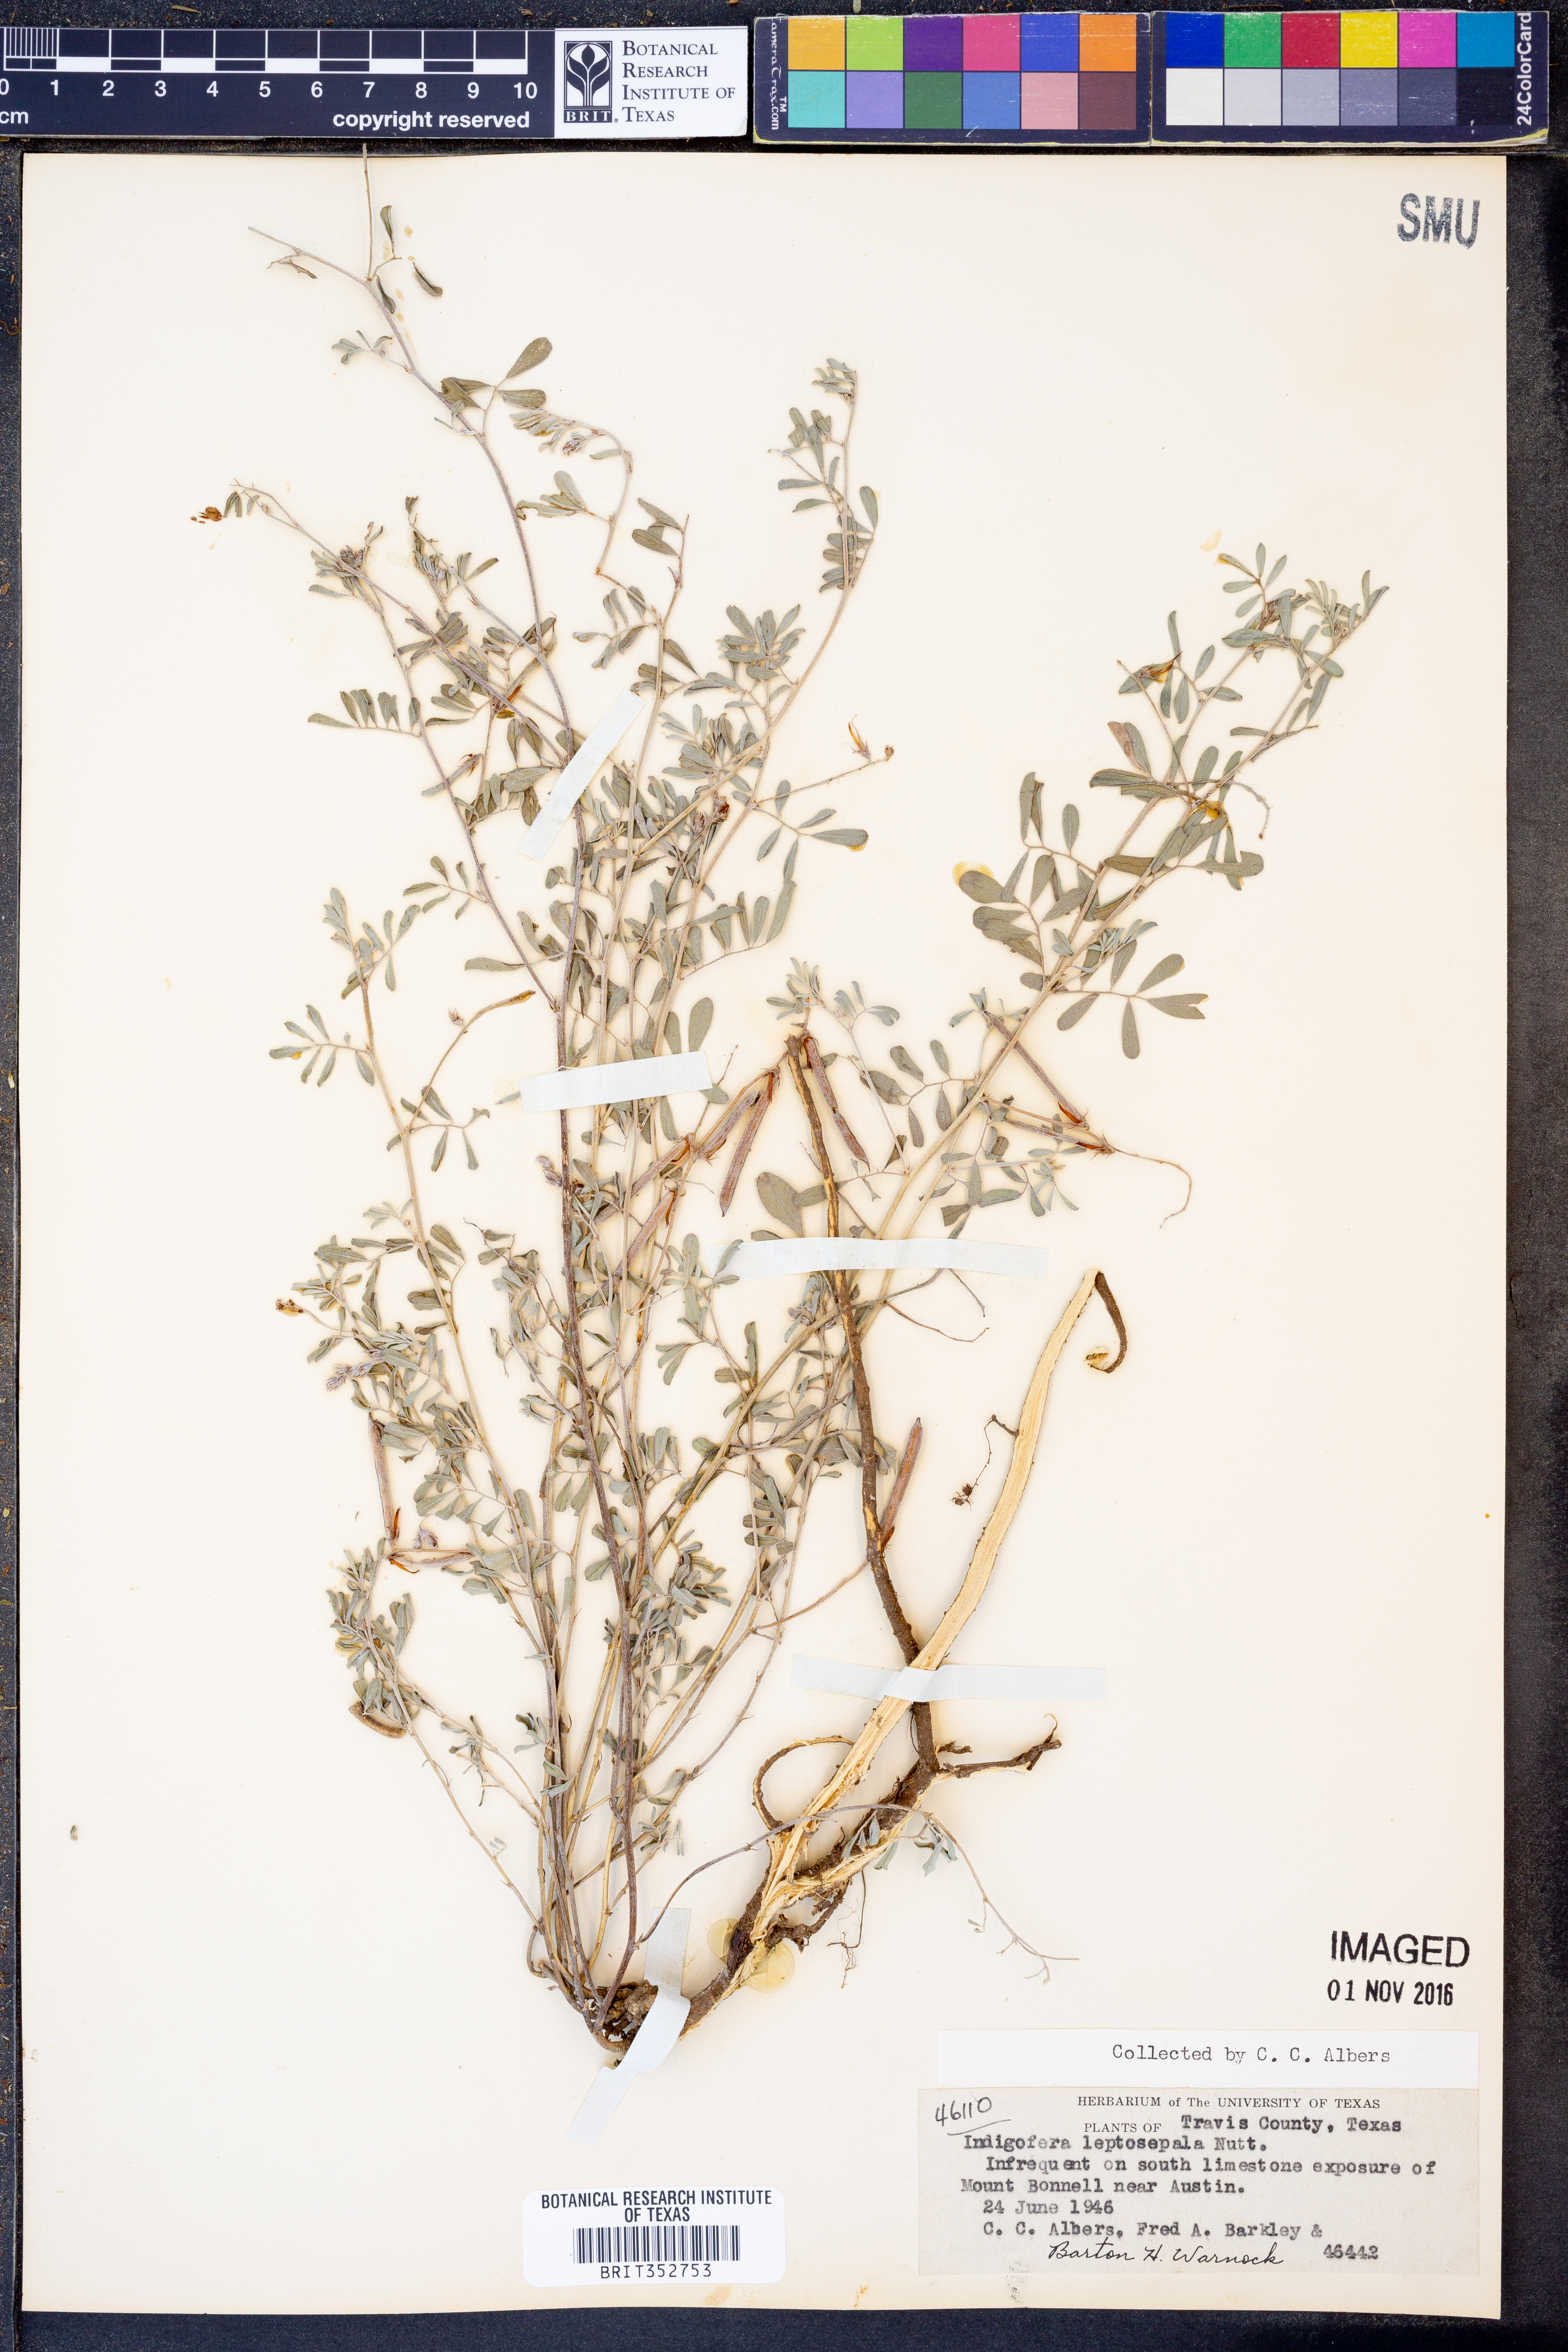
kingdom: Plantae
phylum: Tracheophyta
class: Magnoliopsida
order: Fabales
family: Fabaceae
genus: Indigofera
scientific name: Indigofera argutidens
